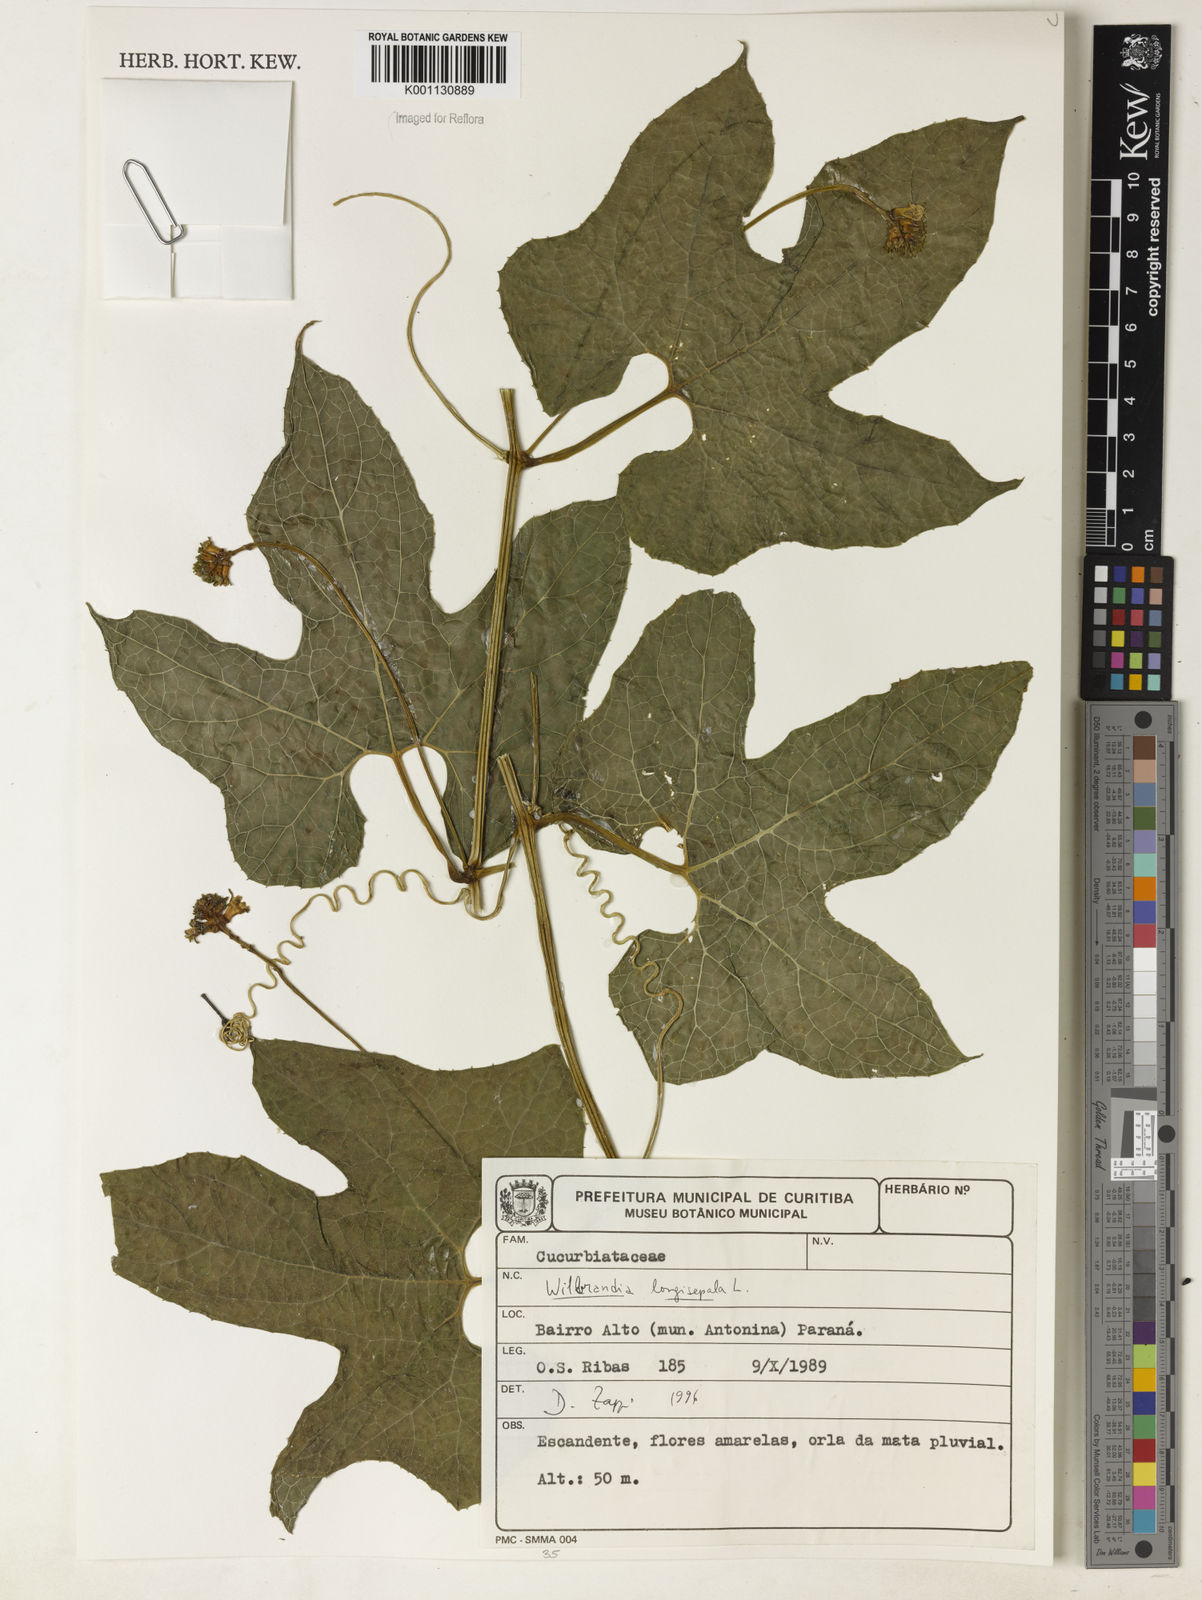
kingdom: Plantae
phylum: Tracheophyta
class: Magnoliopsida
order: Cucurbitales
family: Cucurbitaceae
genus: Wilbrandia
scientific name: Wilbrandia longisepala
